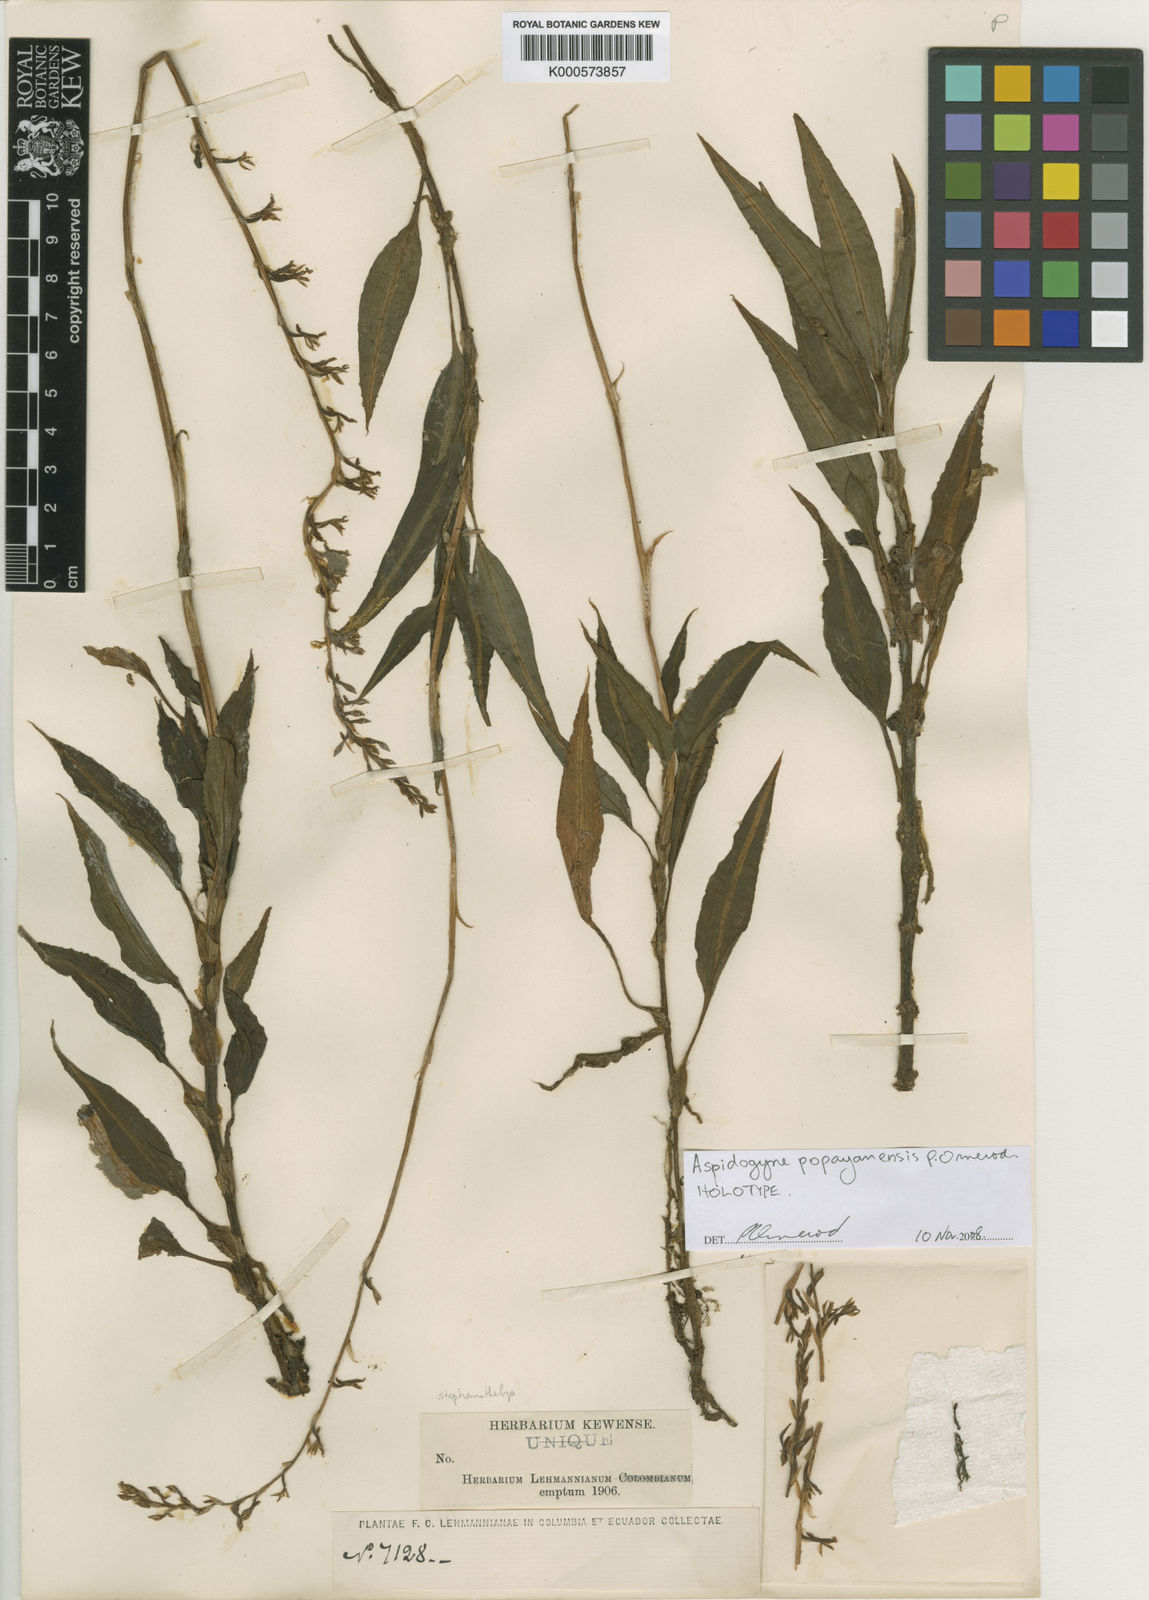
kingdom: Plantae
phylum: Tracheophyta
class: Liliopsida
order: Asparagales
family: Orchidaceae
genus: Aspidogyne
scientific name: Aspidogyne popayanensis
